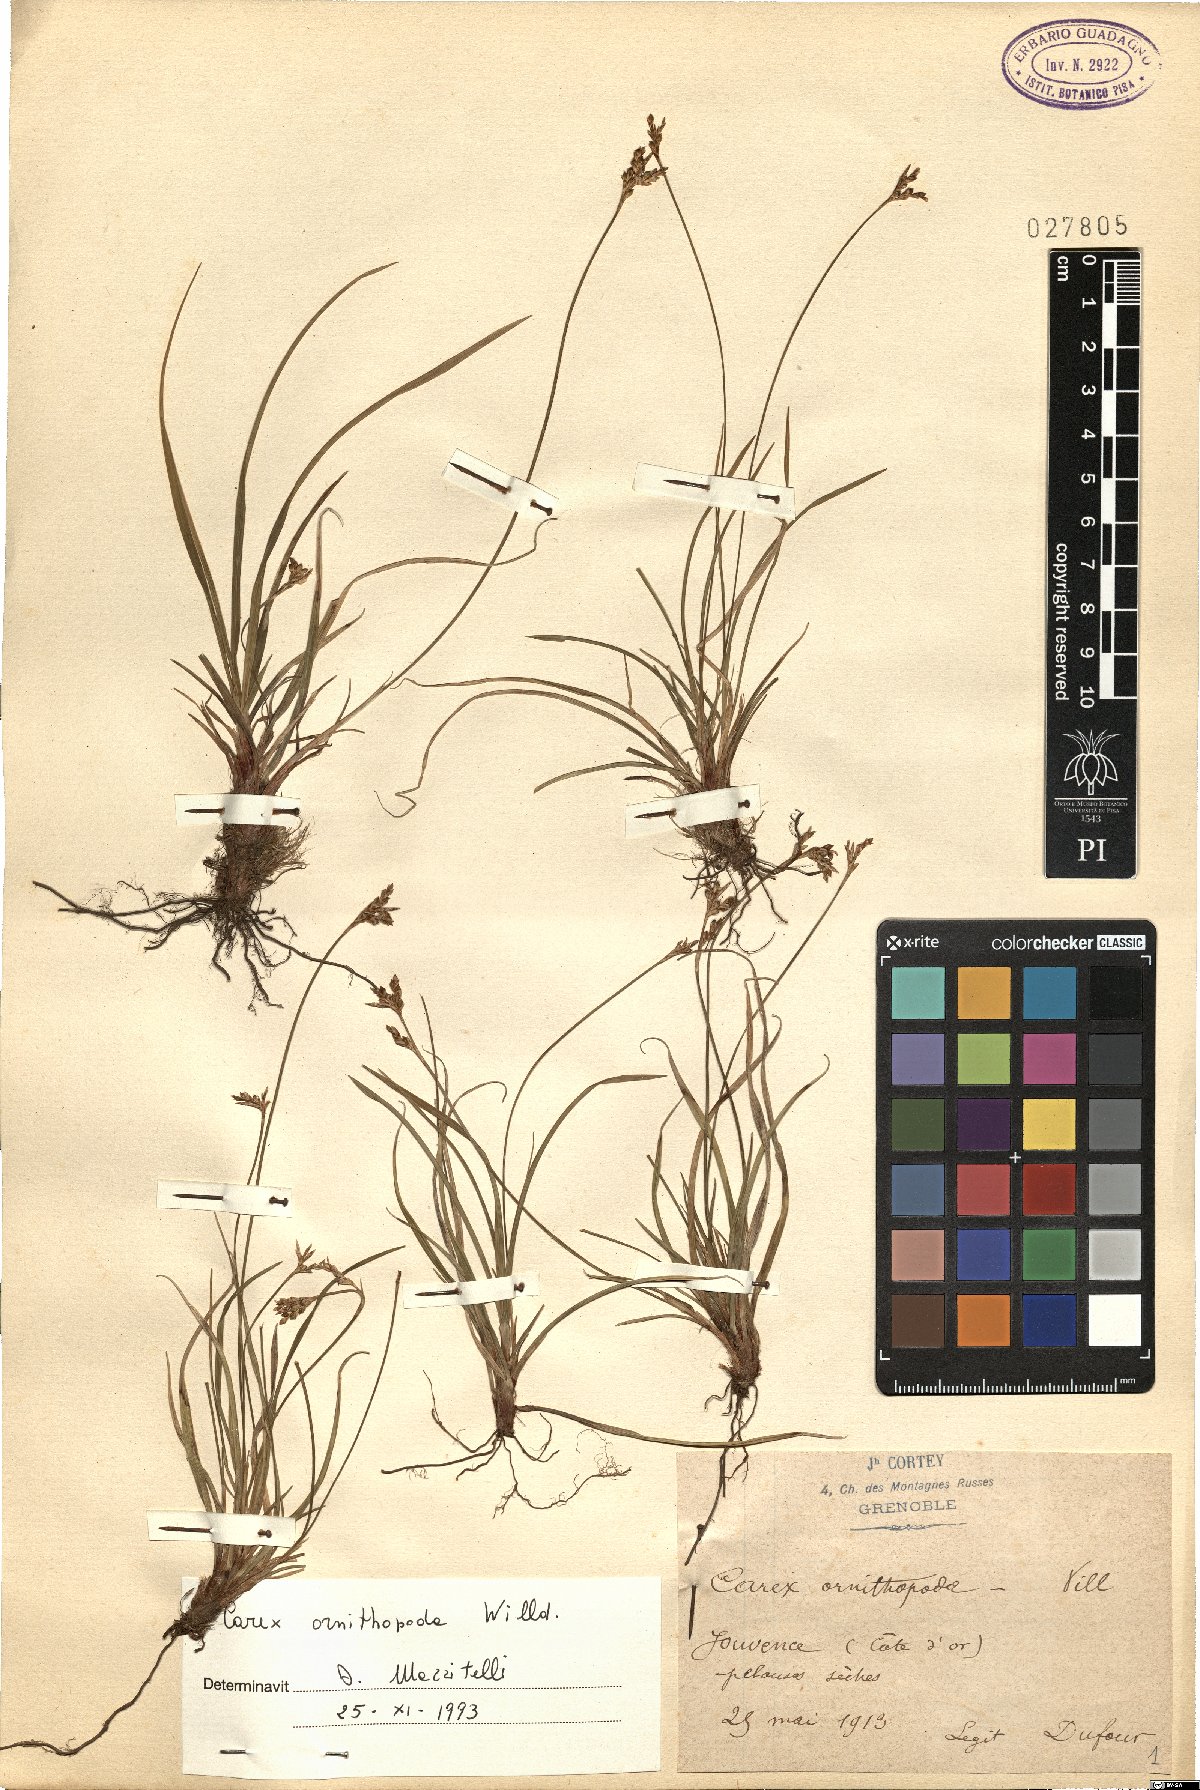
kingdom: Plantae
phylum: Tracheophyta
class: Liliopsida
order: Poales
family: Cyperaceae
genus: Carex
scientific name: Carex ornithopoda
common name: Bird's-foot sedge
